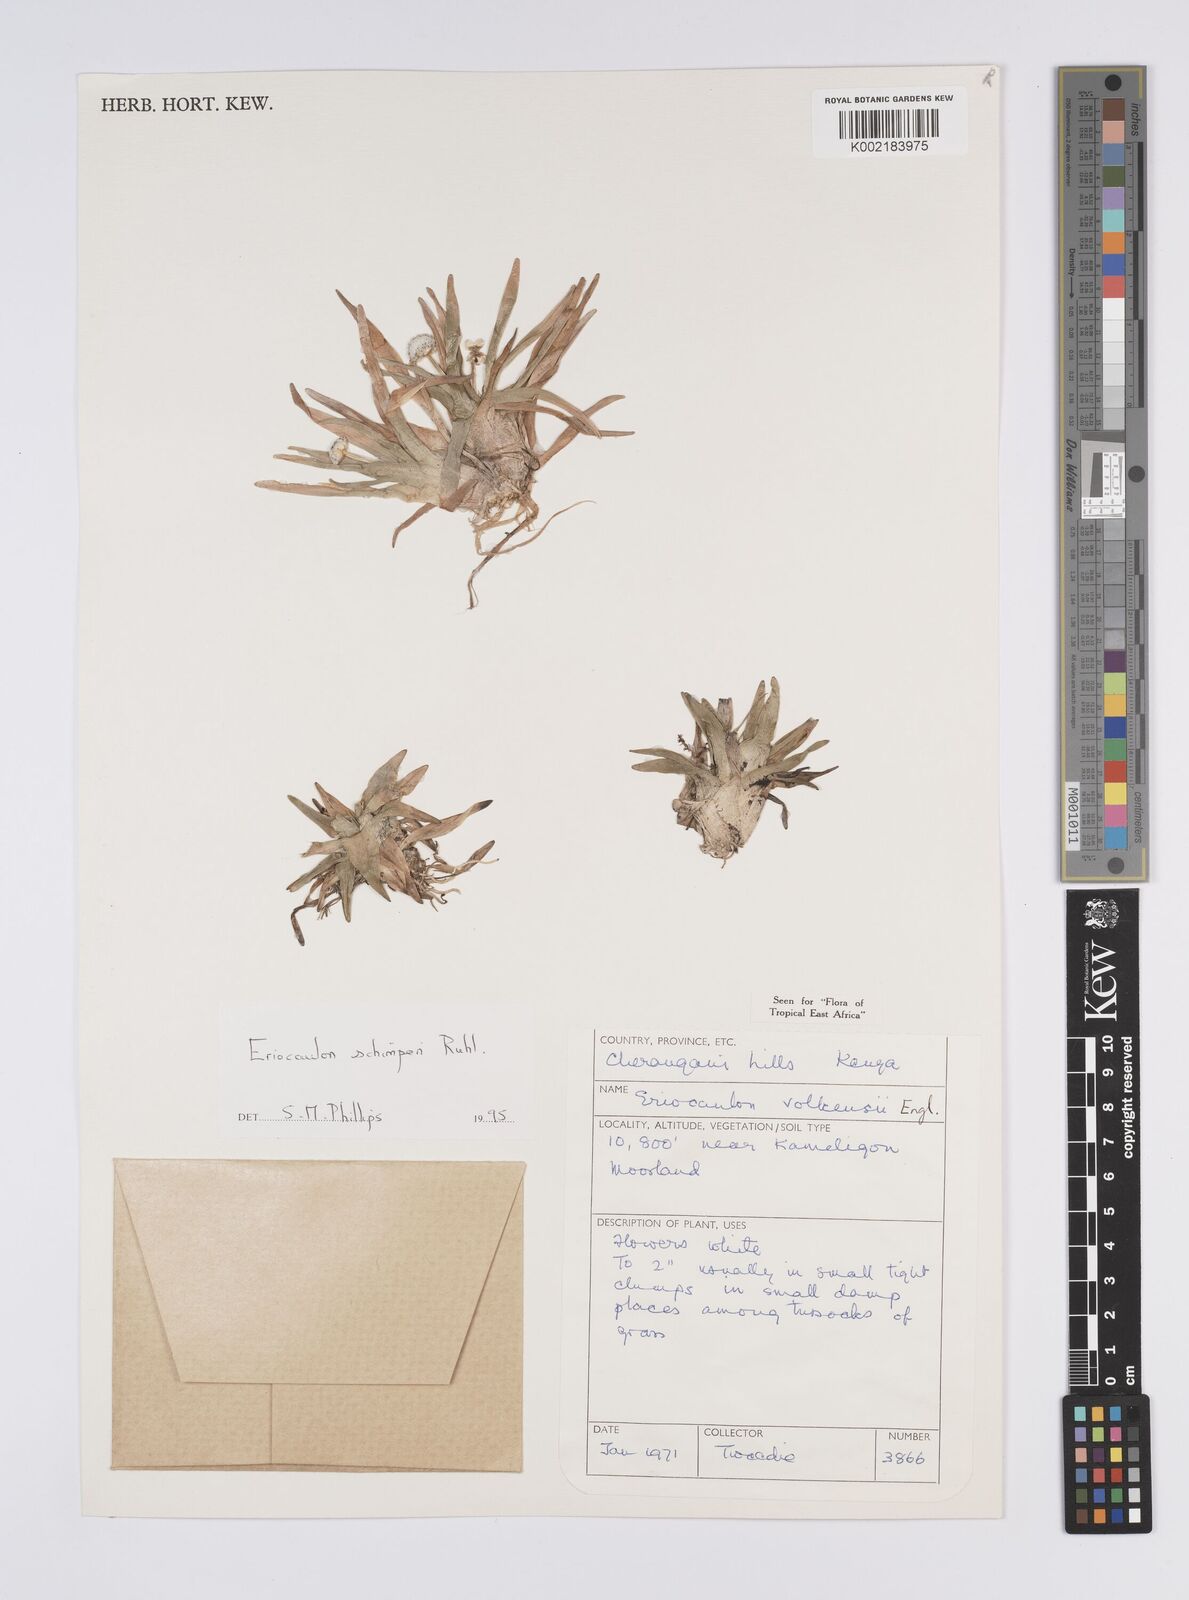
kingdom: Plantae
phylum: Tracheophyta
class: Liliopsida
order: Poales
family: Eriocaulaceae
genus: Eriocaulon
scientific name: Eriocaulon schimperi
